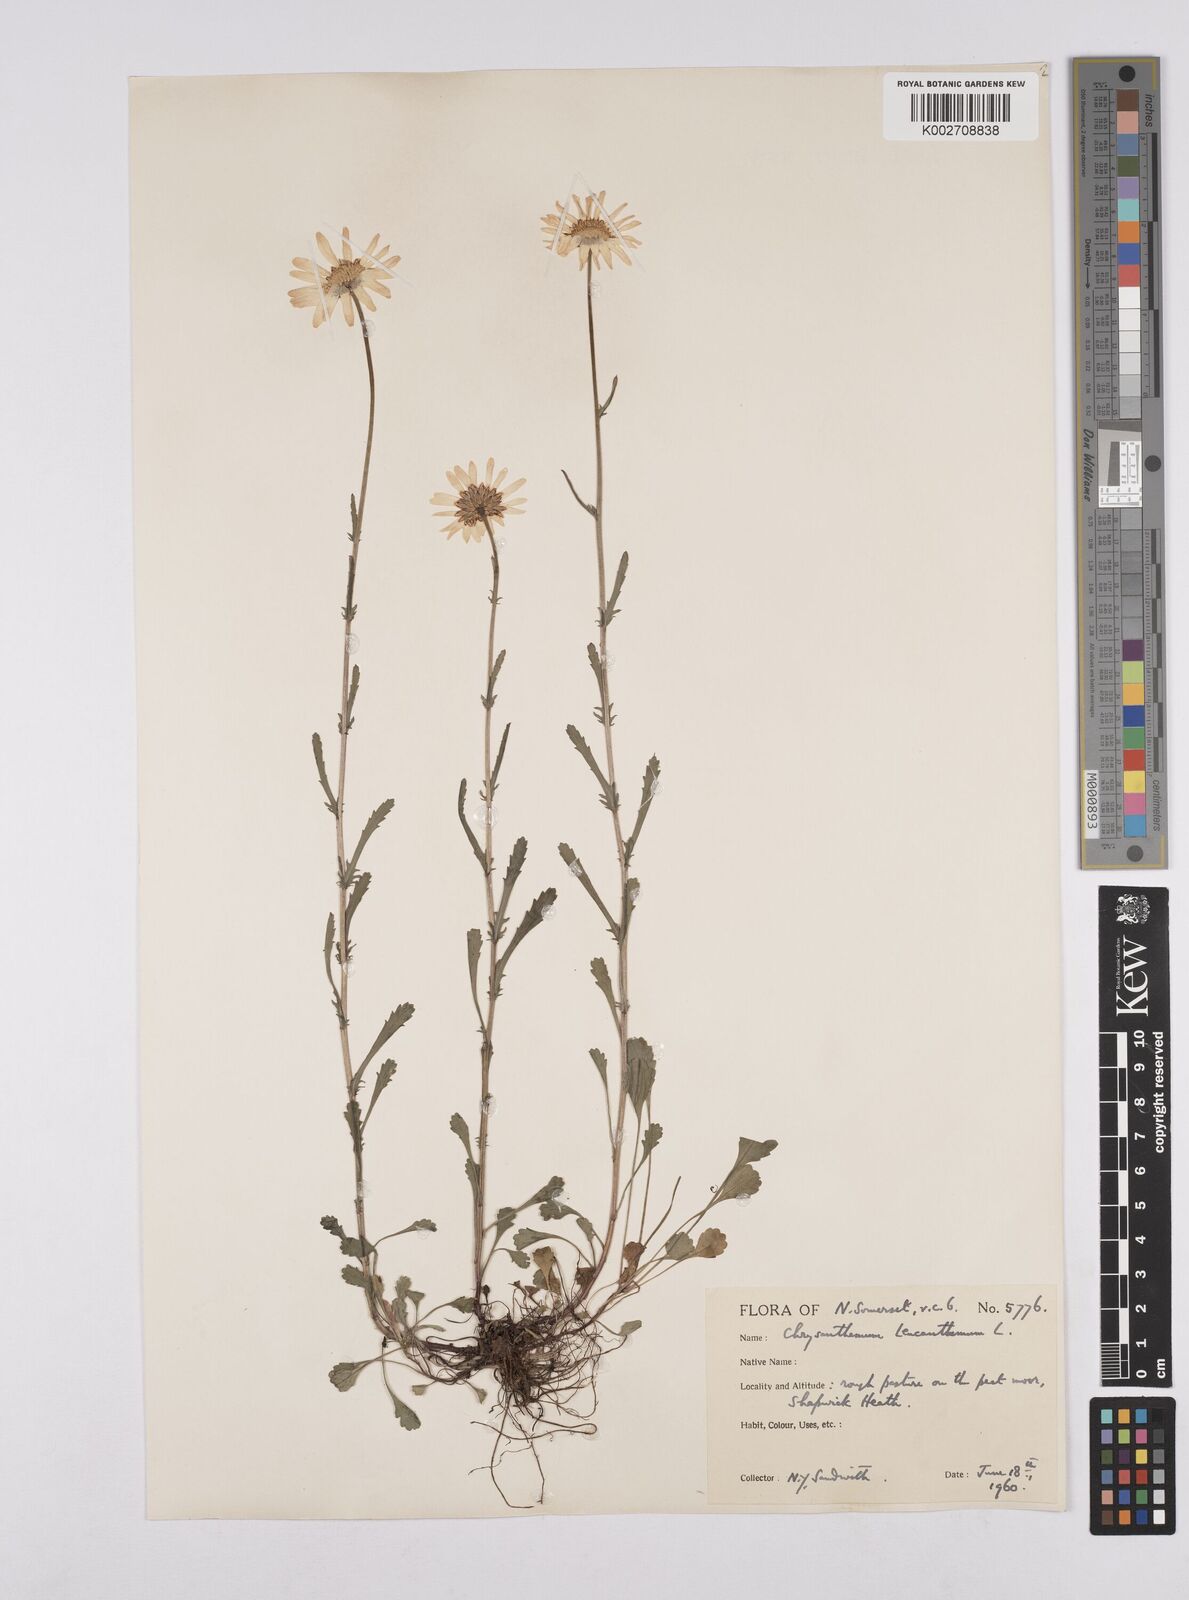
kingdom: Plantae
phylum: Tracheophyta
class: Magnoliopsida
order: Asterales
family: Asteraceae
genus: Leucanthemum
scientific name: Leucanthemum
